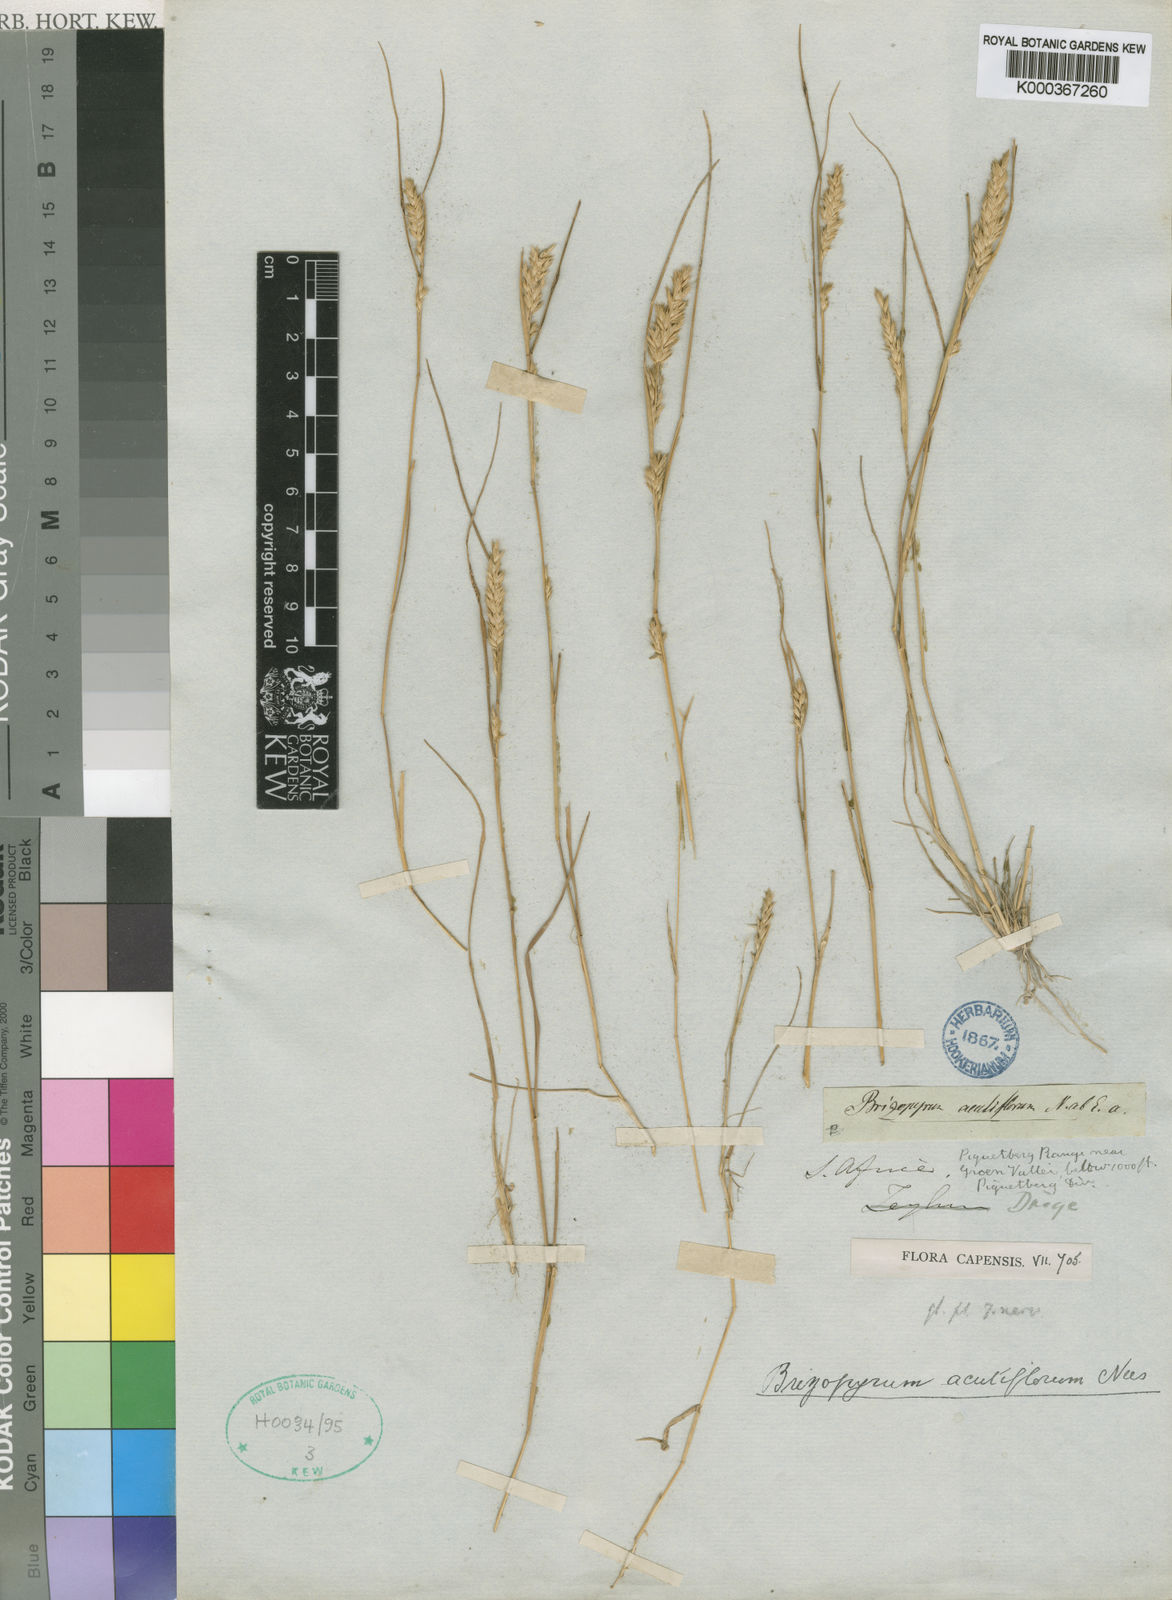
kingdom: Plantae
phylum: Tracheophyta
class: Liliopsida
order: Poales
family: Poaceae
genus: Tribolium
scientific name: Tribolium acutiflorum
